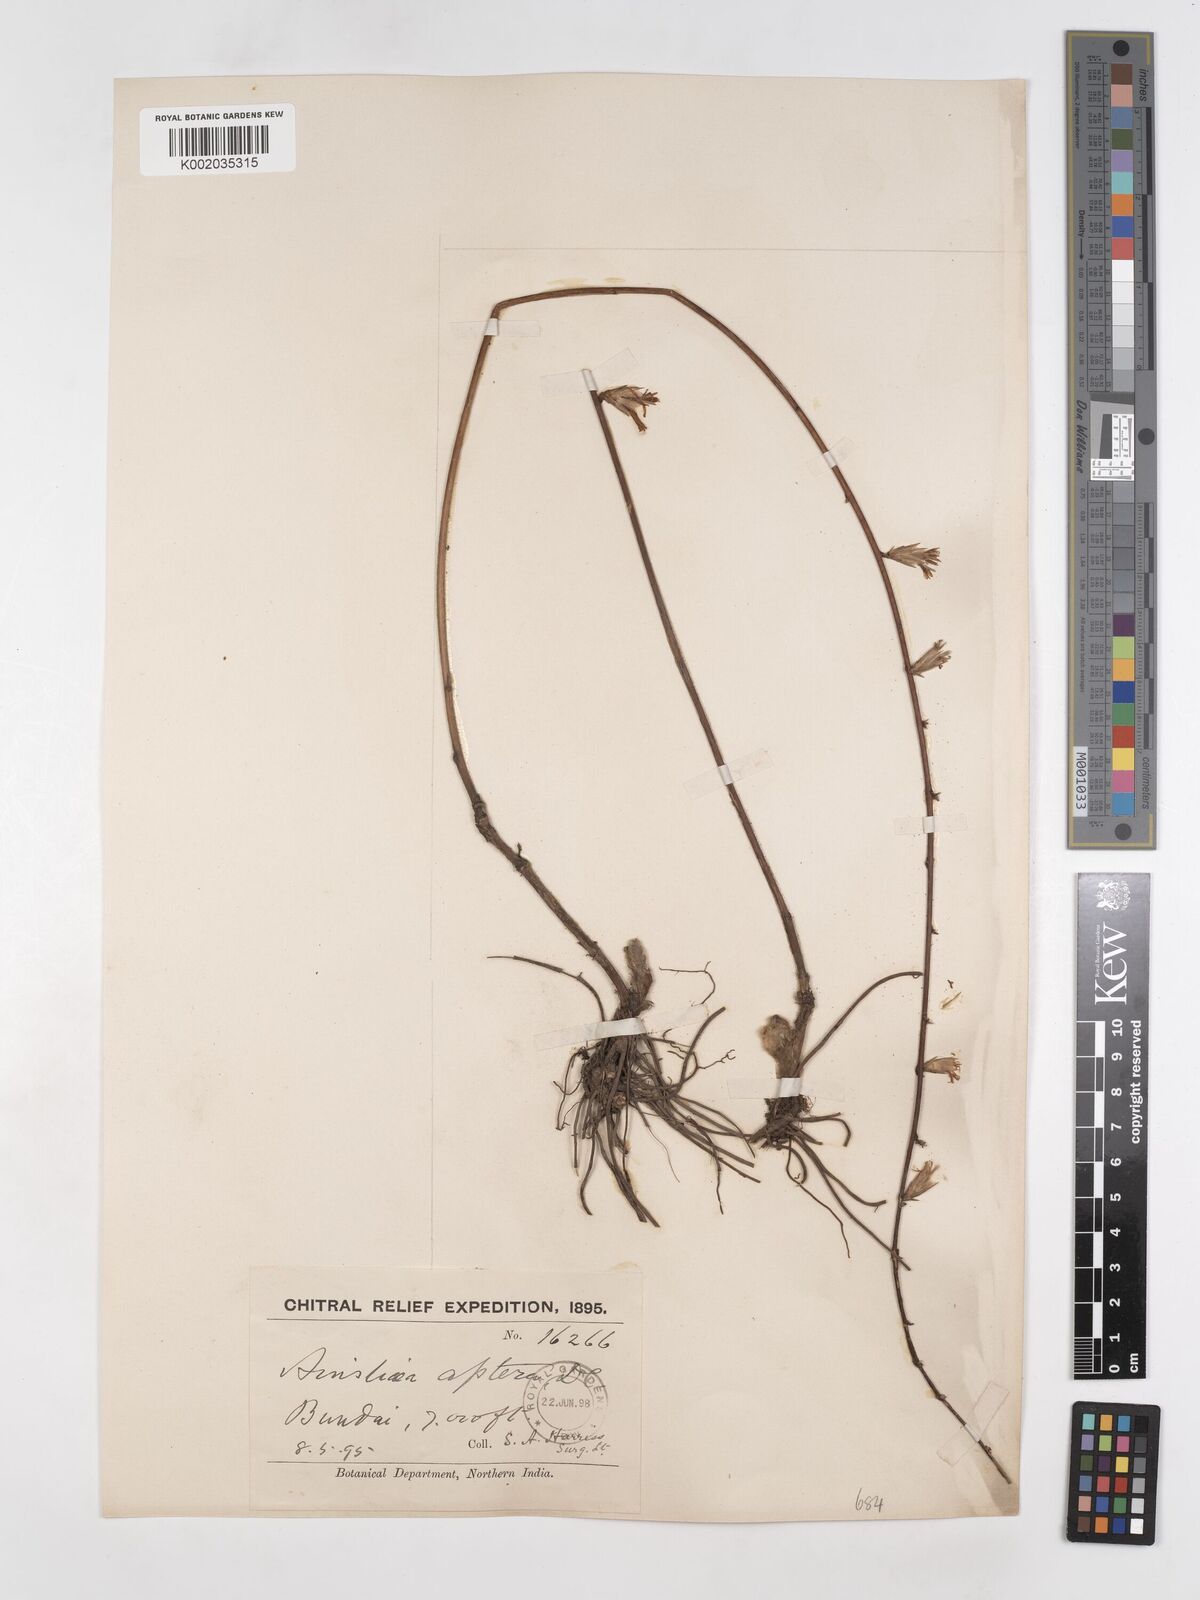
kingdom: Plantae
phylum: Tracheophyta
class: Magnoliopsida
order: Asterales
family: Asteraceae
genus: Ainsliaea
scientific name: Ainsliaea aptera
